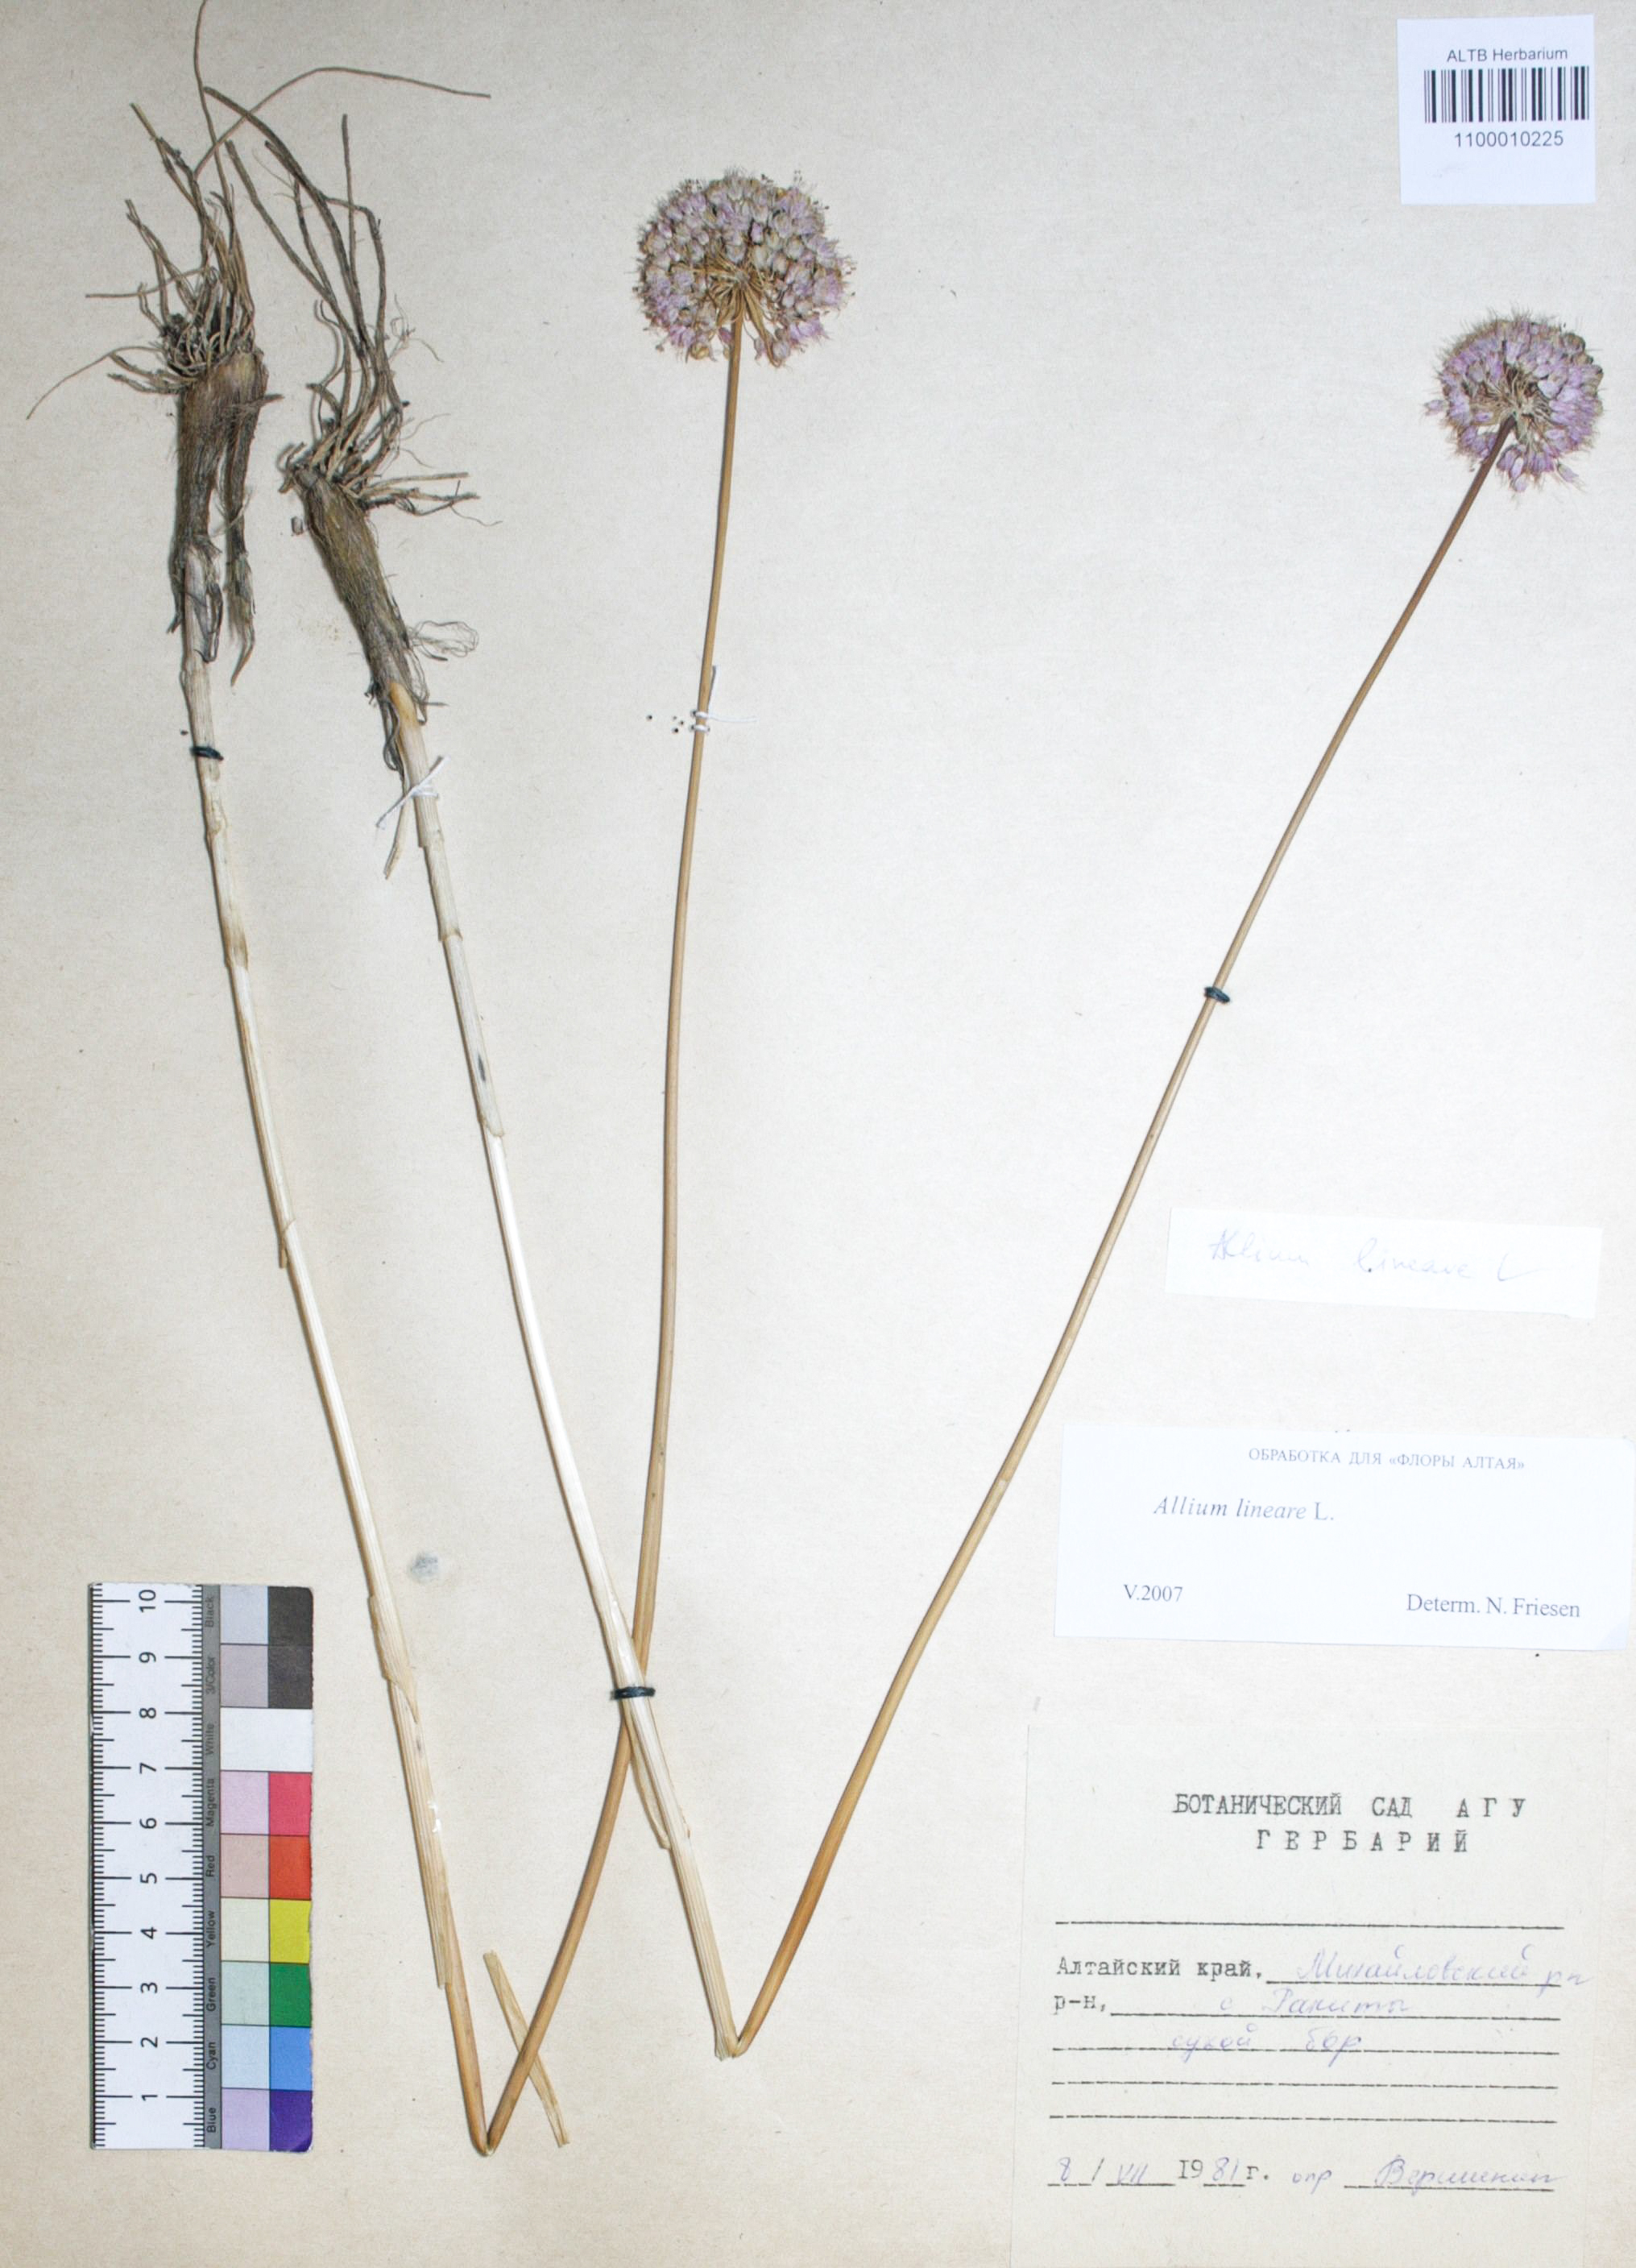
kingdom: Plantae
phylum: Tracheophyta
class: Liliopsida
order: Asparagales
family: Amaryllidaceae
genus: Allium
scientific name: Allium lineare
